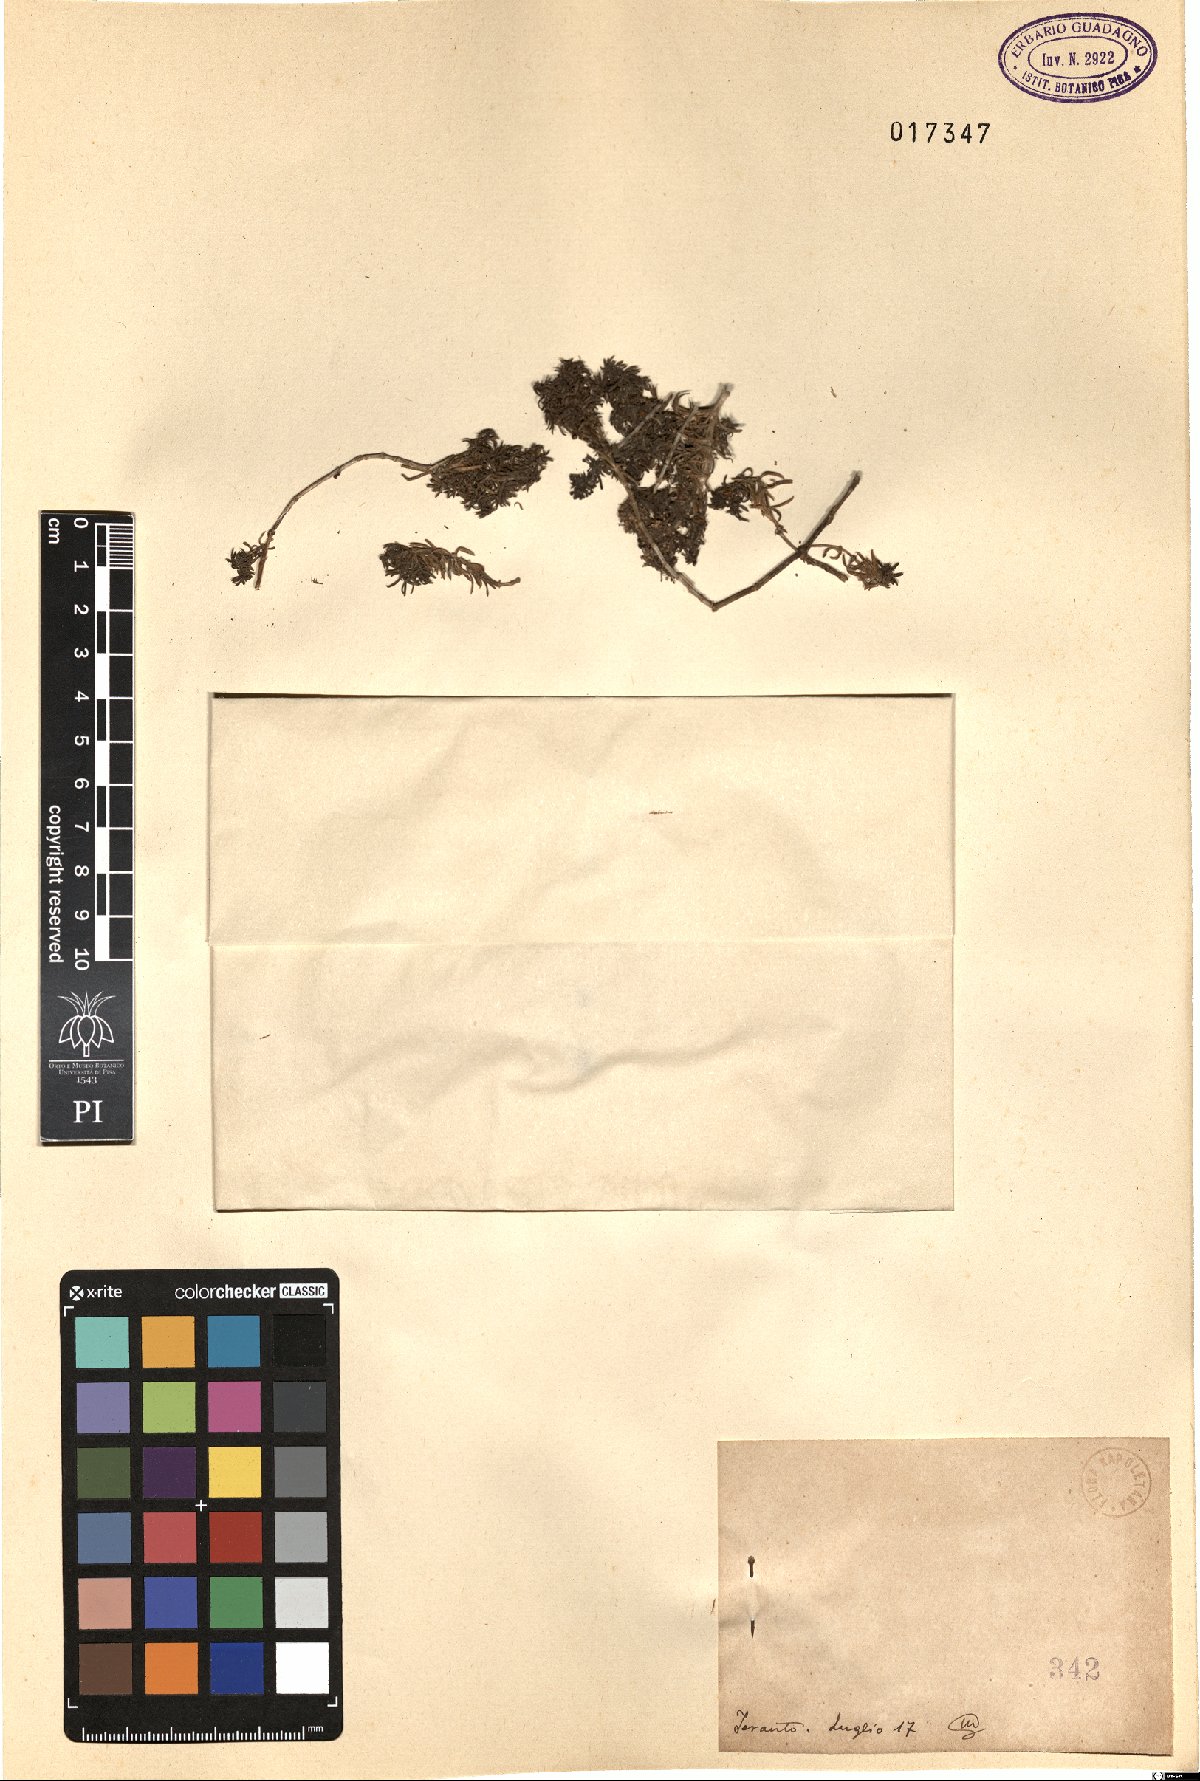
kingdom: Plantae
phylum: Tracheophyta
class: Magnoliopsida
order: Gentianales
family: Rubiaceae
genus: Galium
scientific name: Galium
